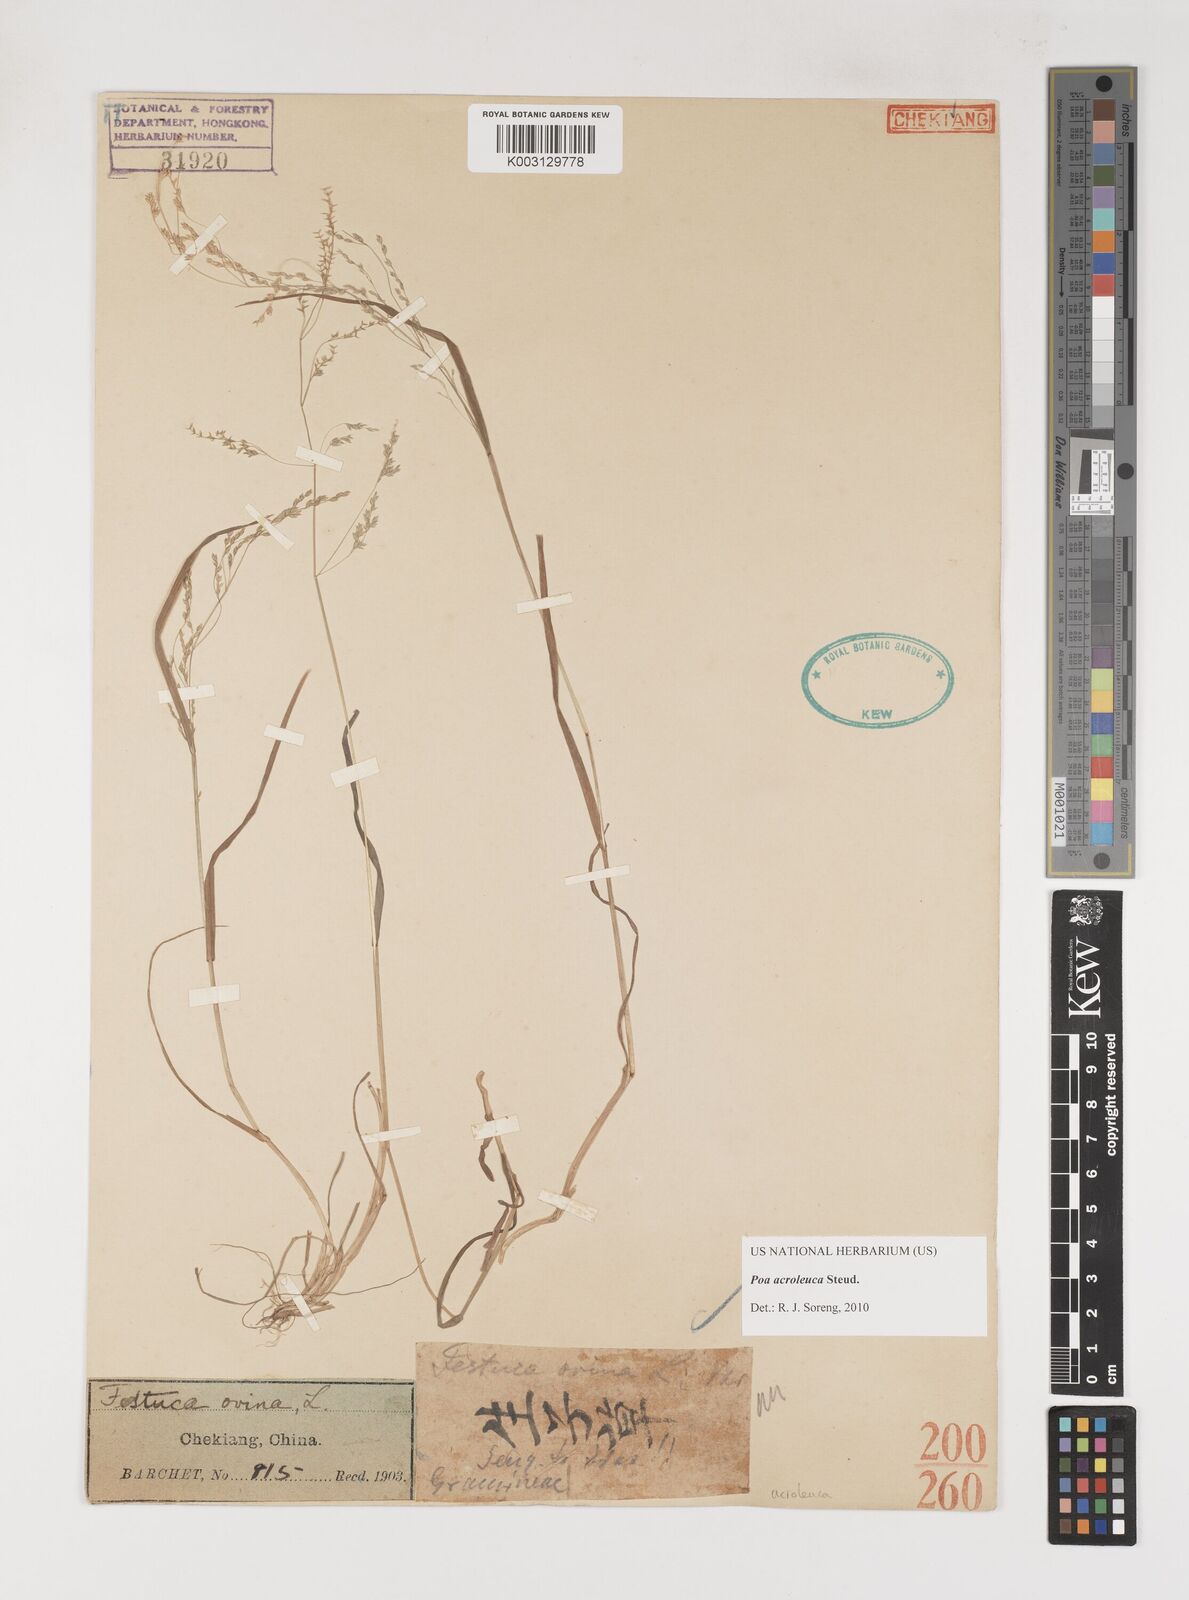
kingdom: Plantae
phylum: Tracheophyta
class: Liliopsida
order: Poales
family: Poaceae
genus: Poa
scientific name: Poa acroleuca
